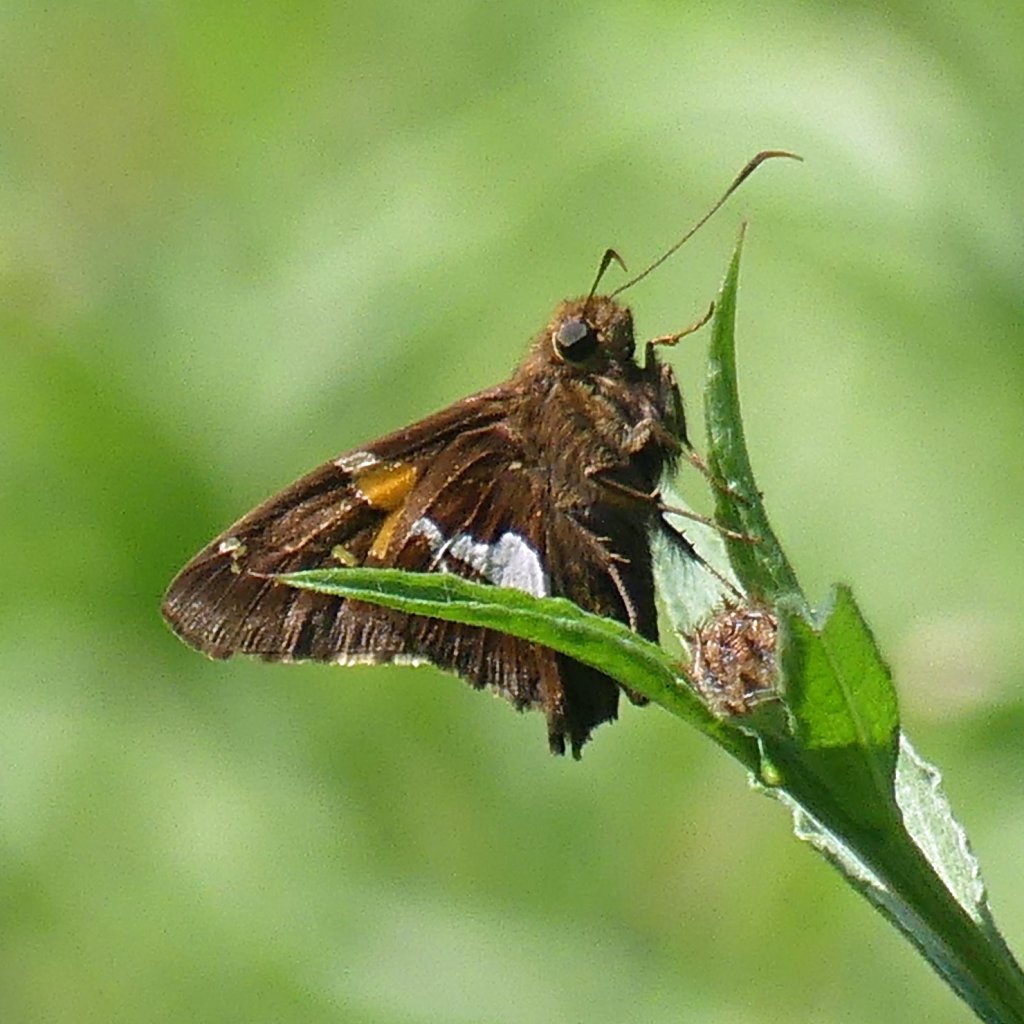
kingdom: Animalia
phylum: Arthropoda
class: Insecta
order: Lepidoptera
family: Hesperiidae
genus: Epargyreus
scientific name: Epargyreus clarus
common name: Silver-spotted Skipper
